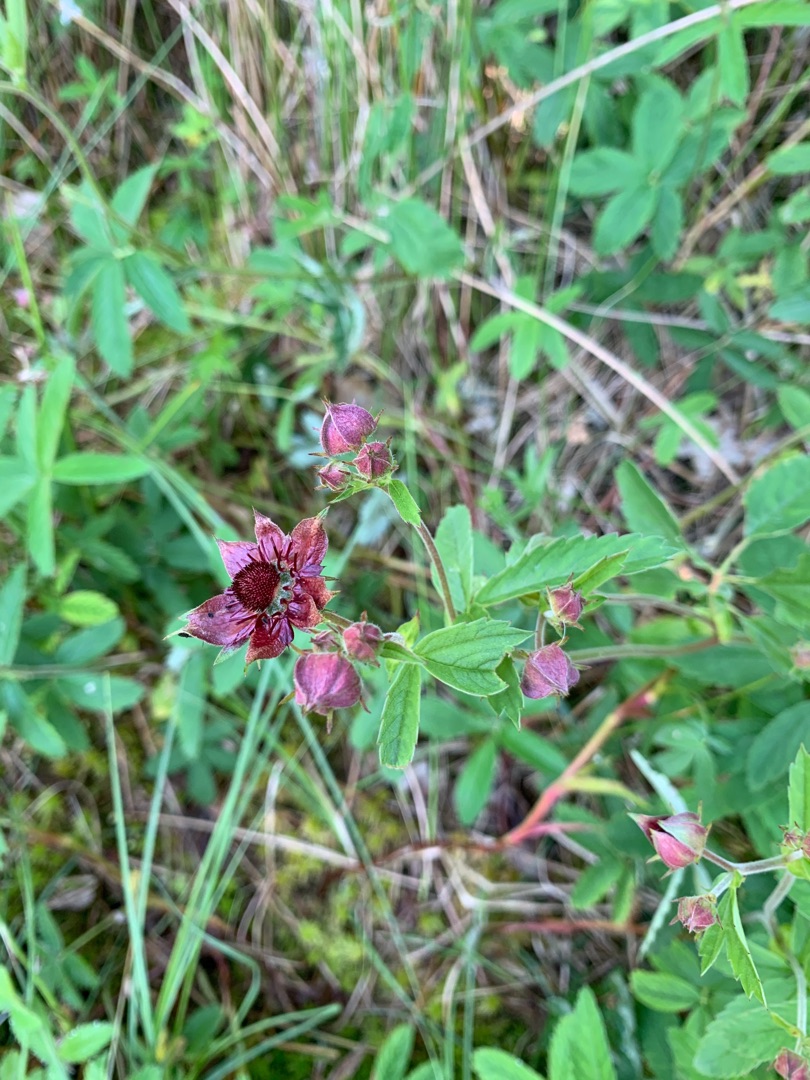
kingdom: Plantae
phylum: Tracheophyta
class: Magnoliopsida
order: Rosales
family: Rosaceae
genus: Comarum
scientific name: Comarum palustre
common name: Kragefod
